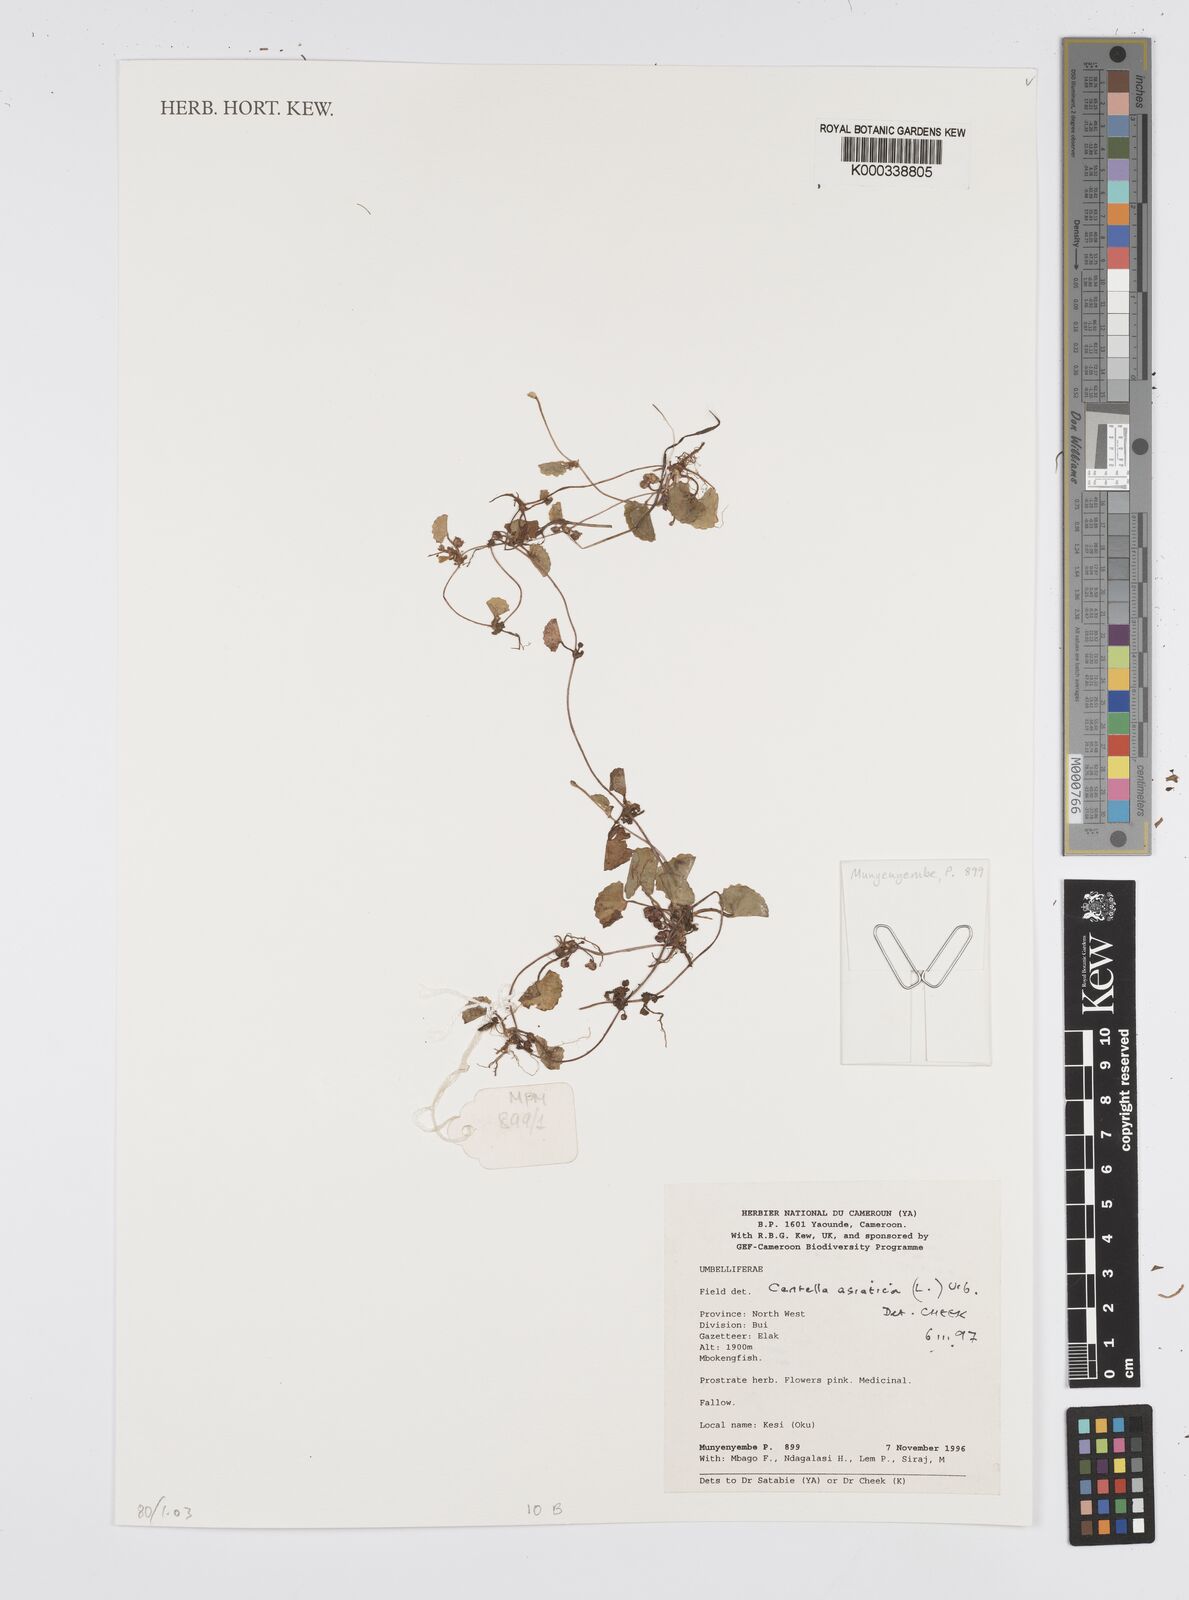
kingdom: Plantae
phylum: Tracheophyta
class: Magnoliopsida
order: Apiales
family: Apiaceae
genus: Centella
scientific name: Centella asiatica
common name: Spadeleaf
